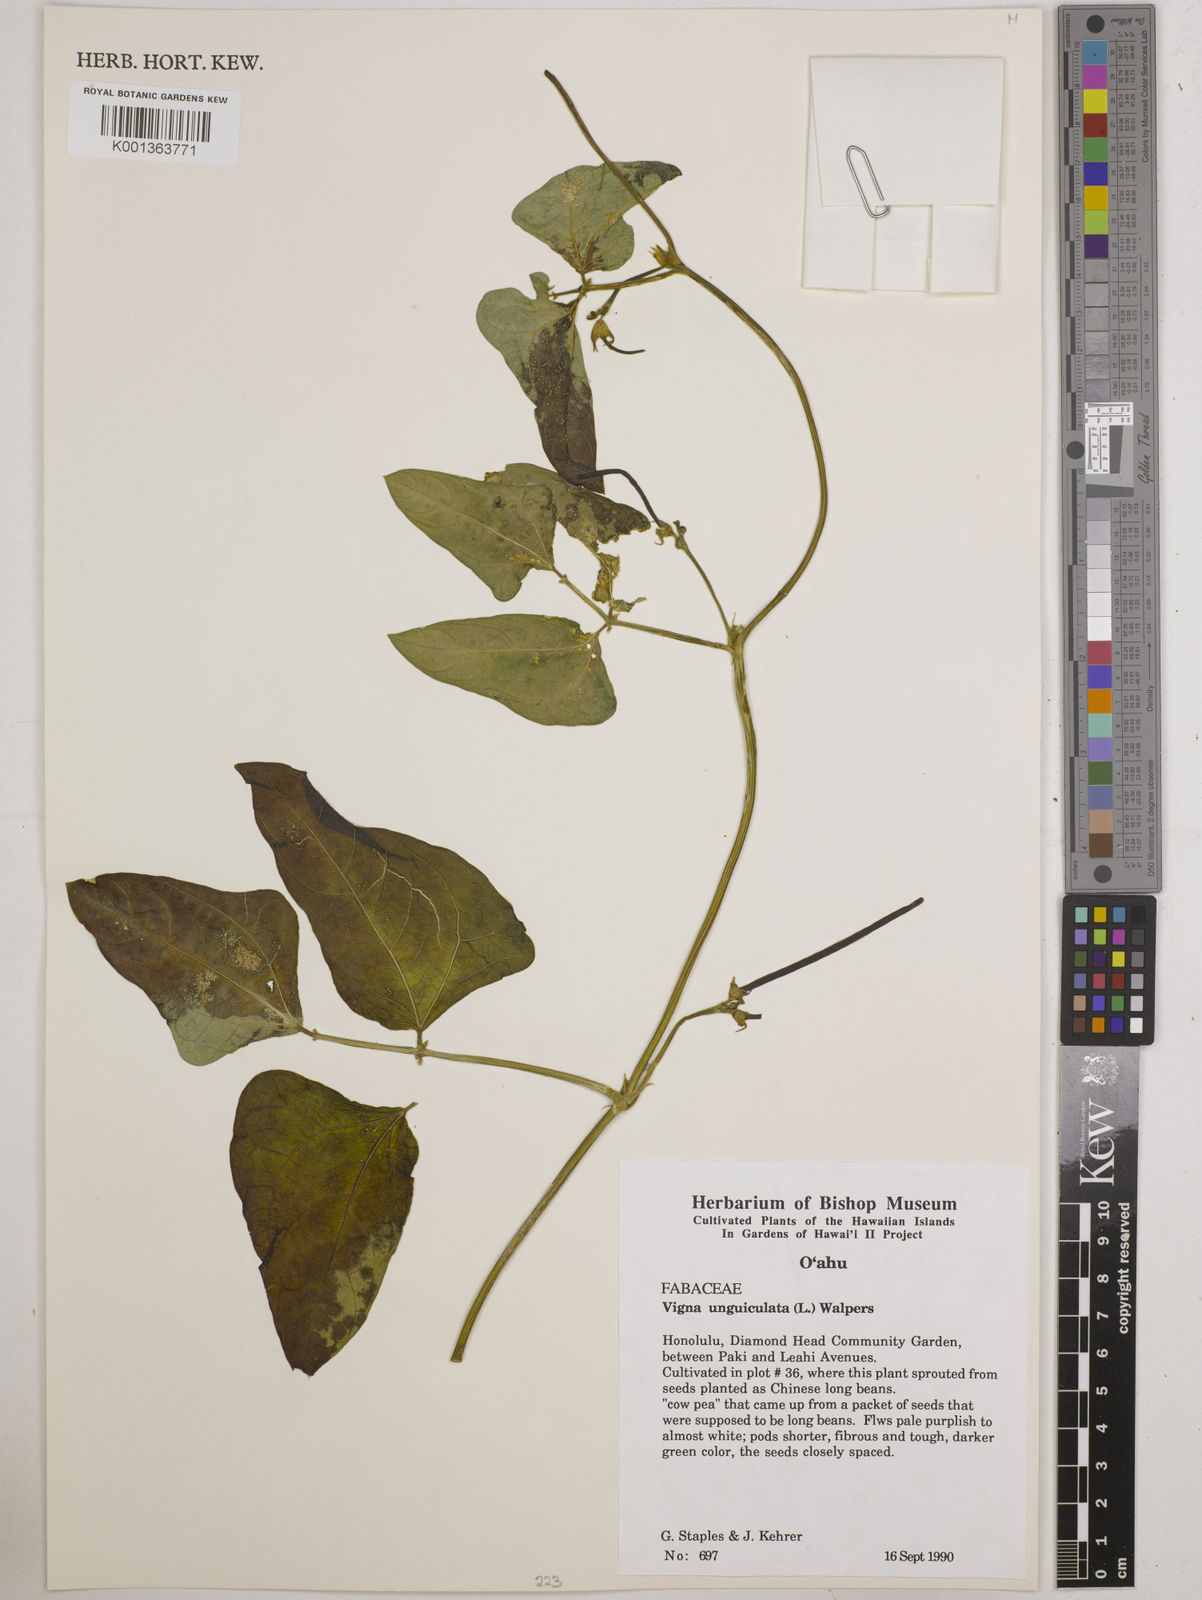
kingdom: Plantae
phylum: Tracheophyta
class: Magnoliopsida
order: Fabales
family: Fabaceae
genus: Vigna
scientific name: Vigna unguiculata
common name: Cowpea
